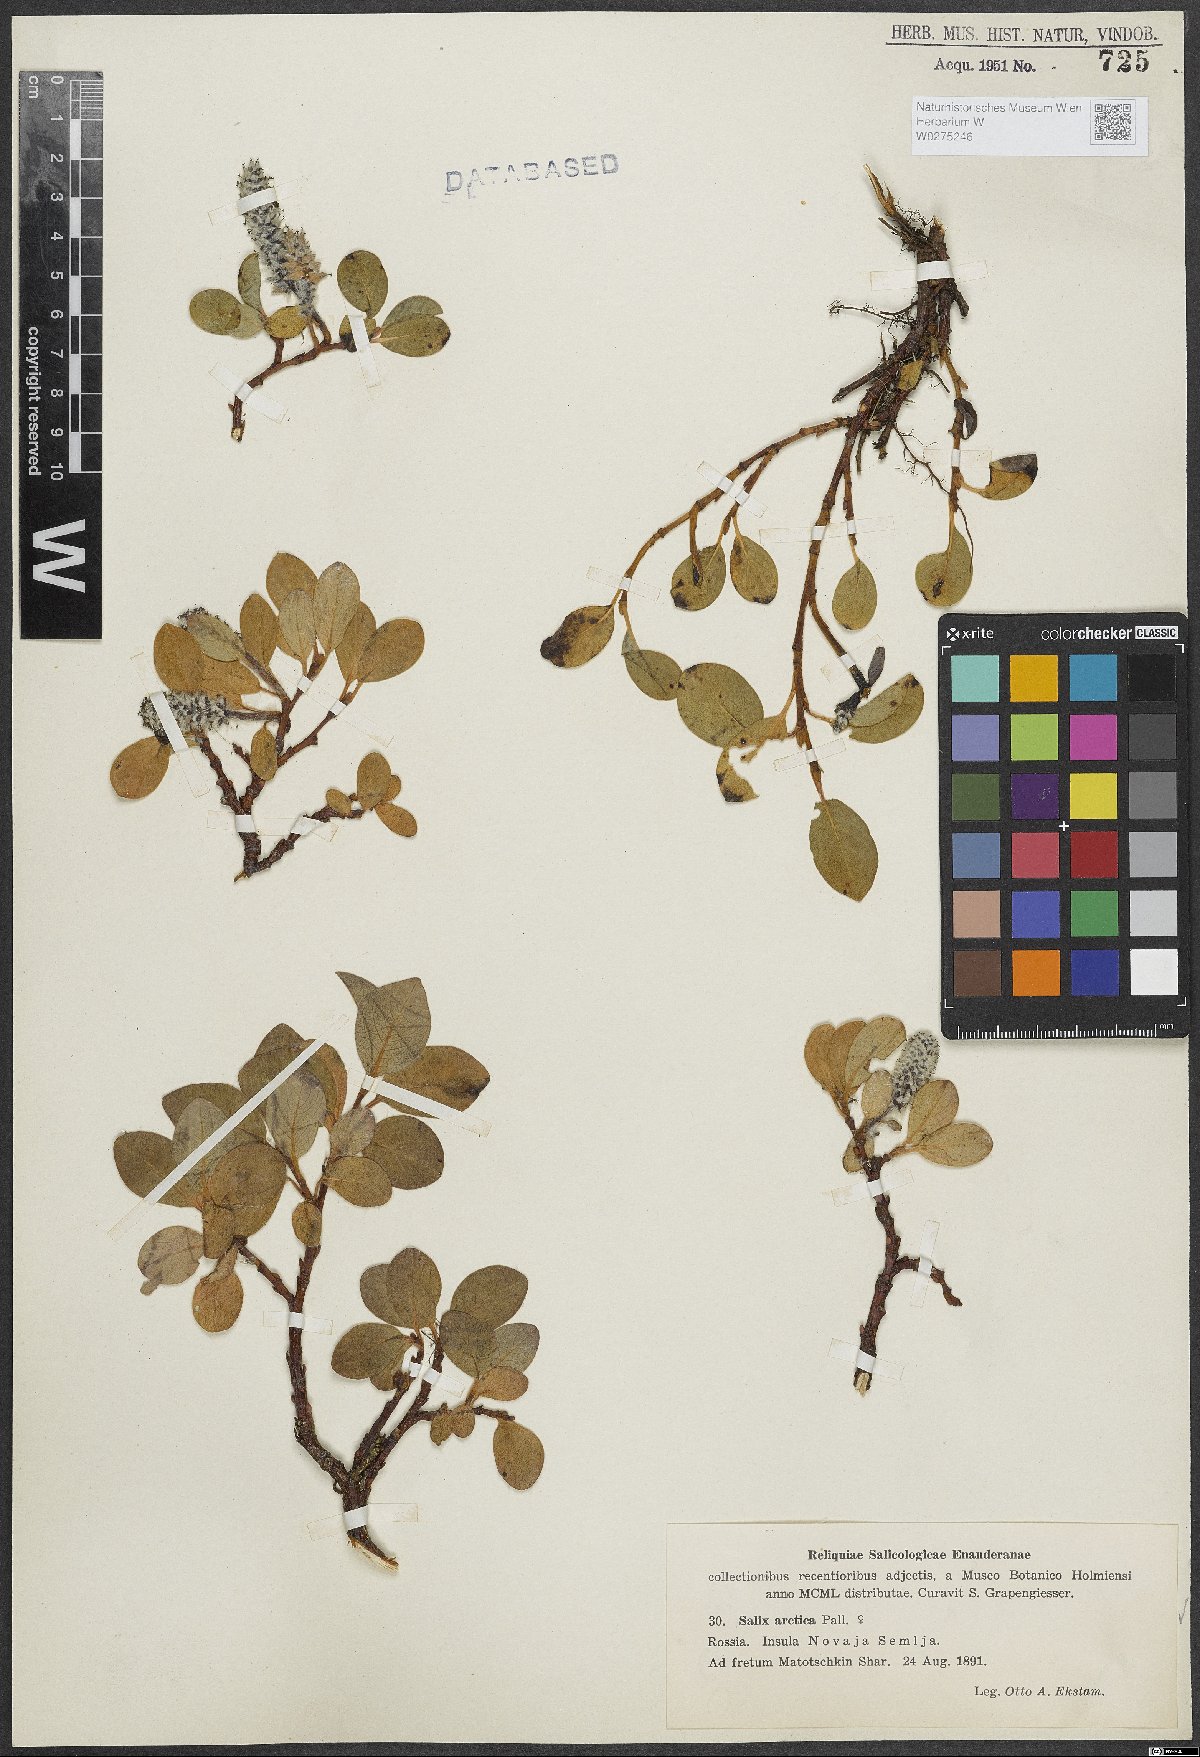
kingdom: Plantae
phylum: Tracheophyta
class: Magnoliopsida
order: Malpighiales
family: Salicaceae
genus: Salix
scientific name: Salix arctica
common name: Arctic willow
